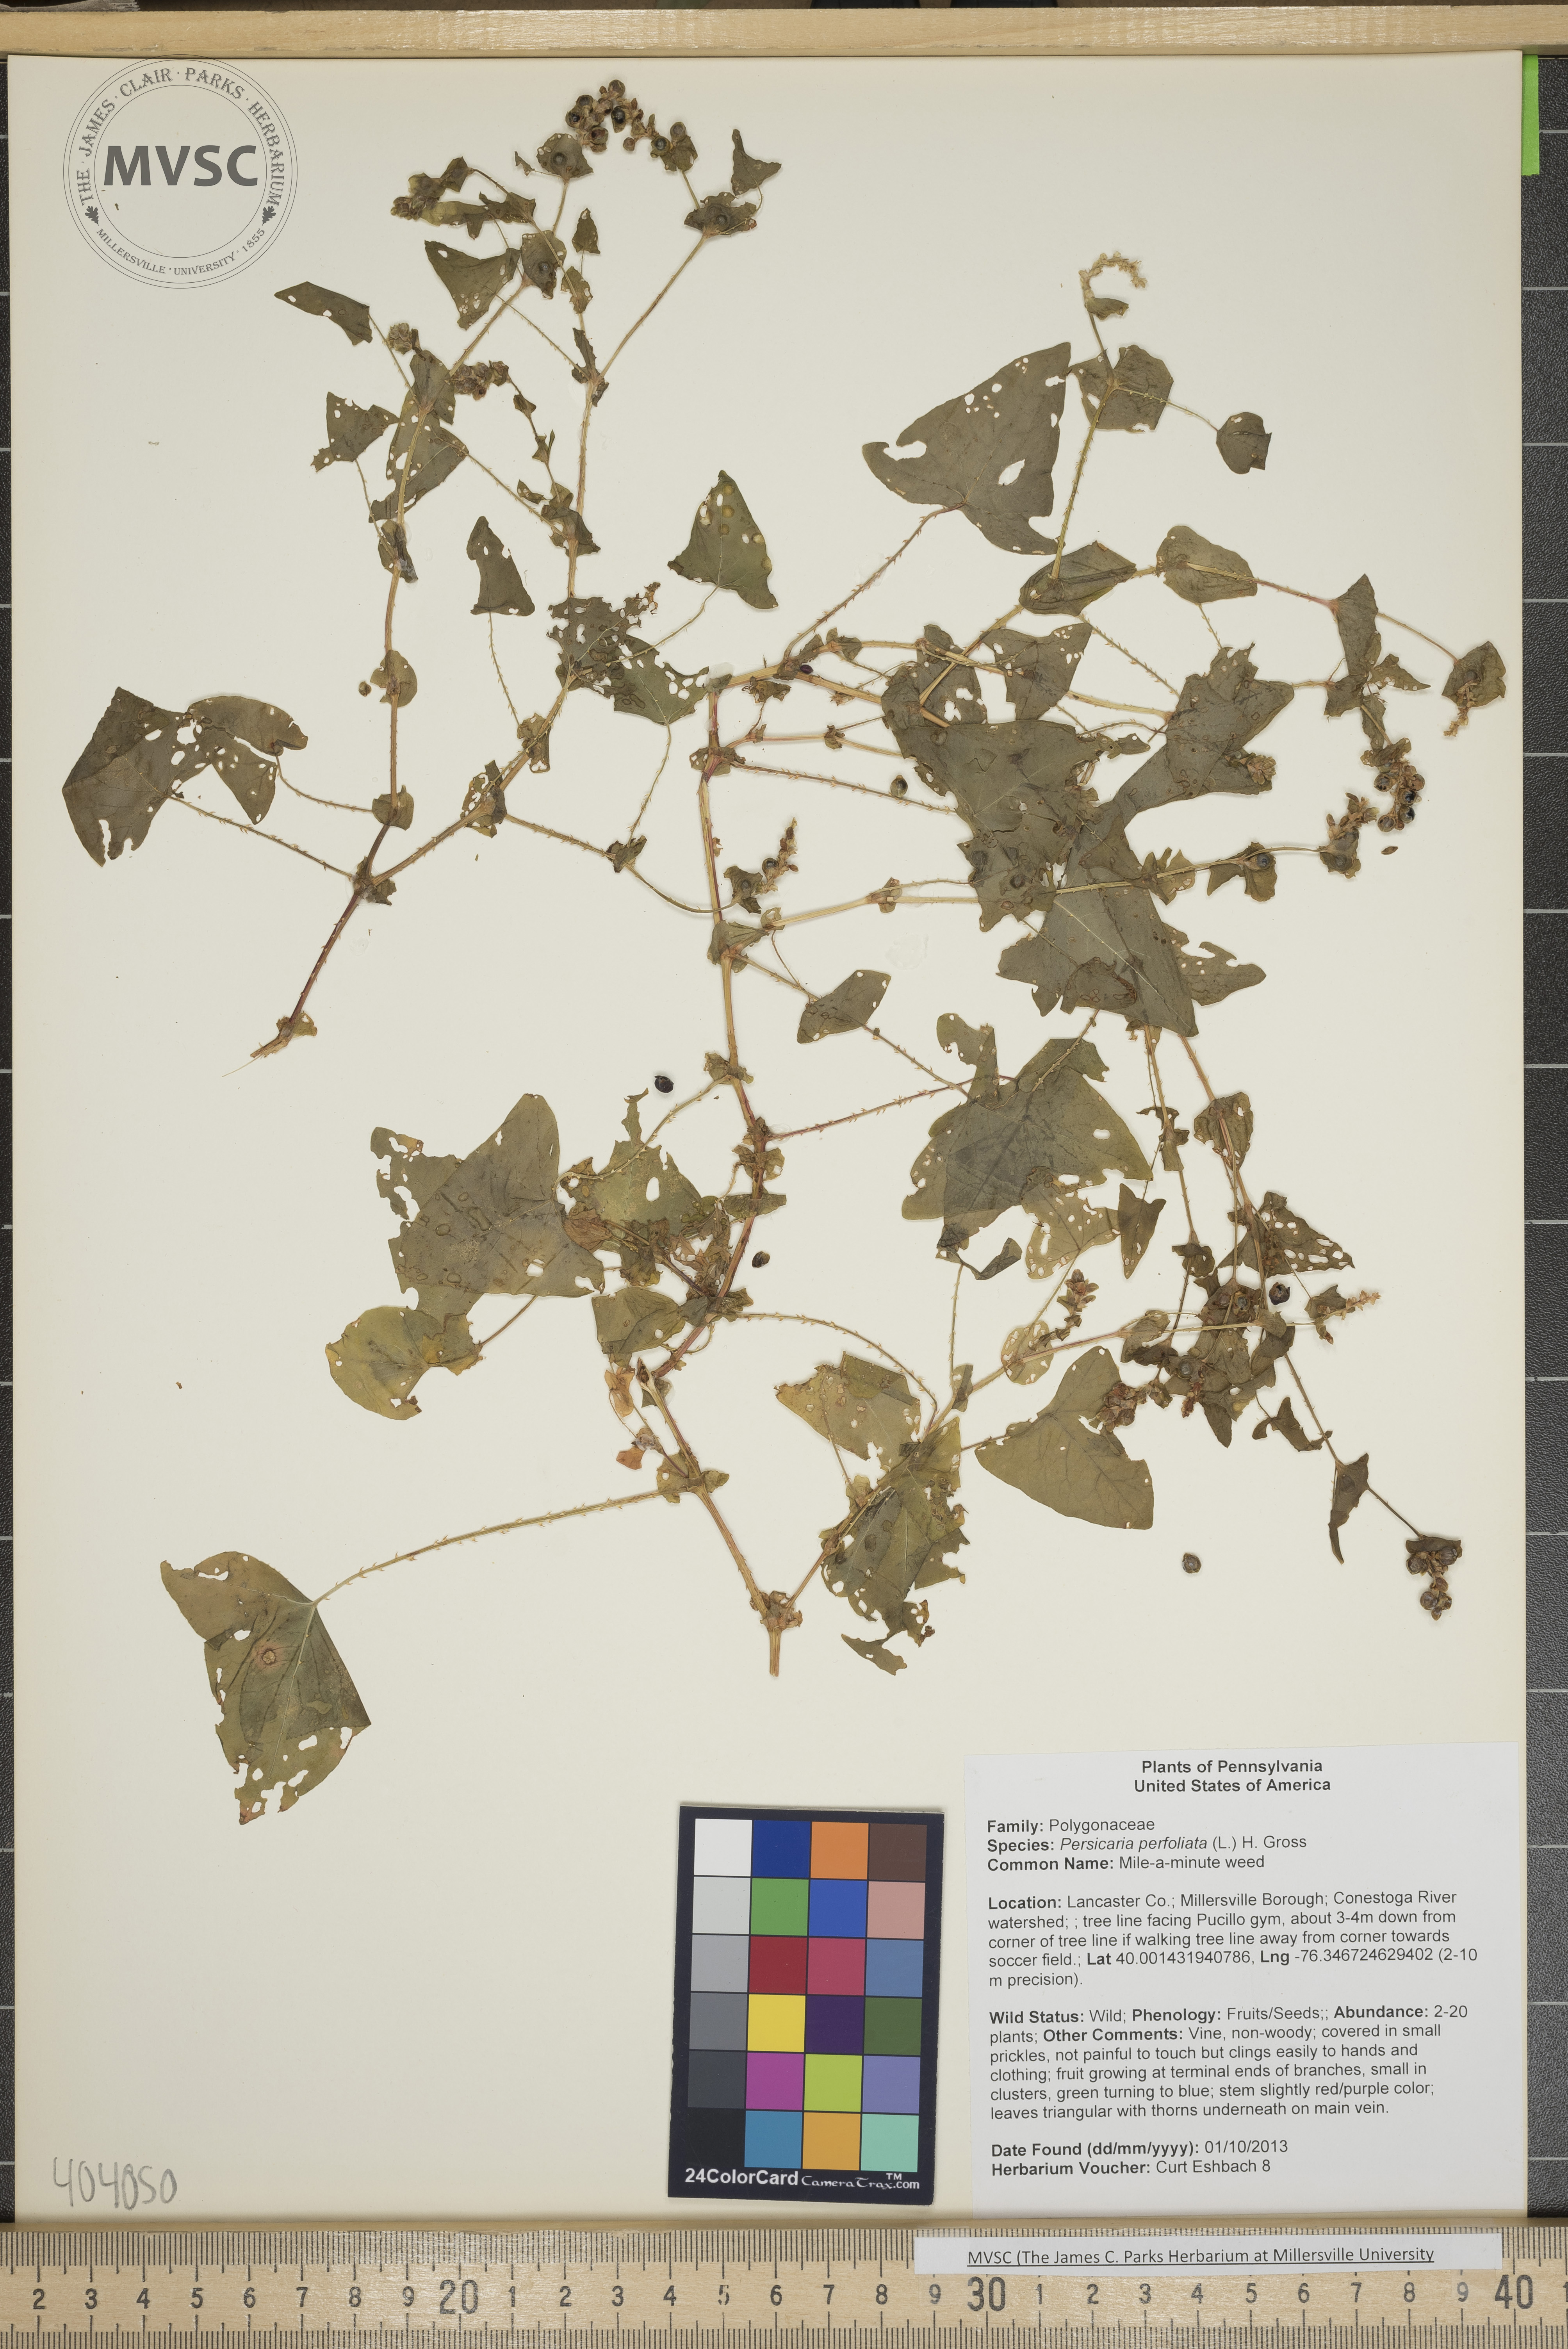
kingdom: Plantae
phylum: Tracheophyta
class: Magnoliopsida
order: Caryophyllales
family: Polygonaceae
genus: Persicaria
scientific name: Persicaria perfoliata
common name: Mile-a-minute
